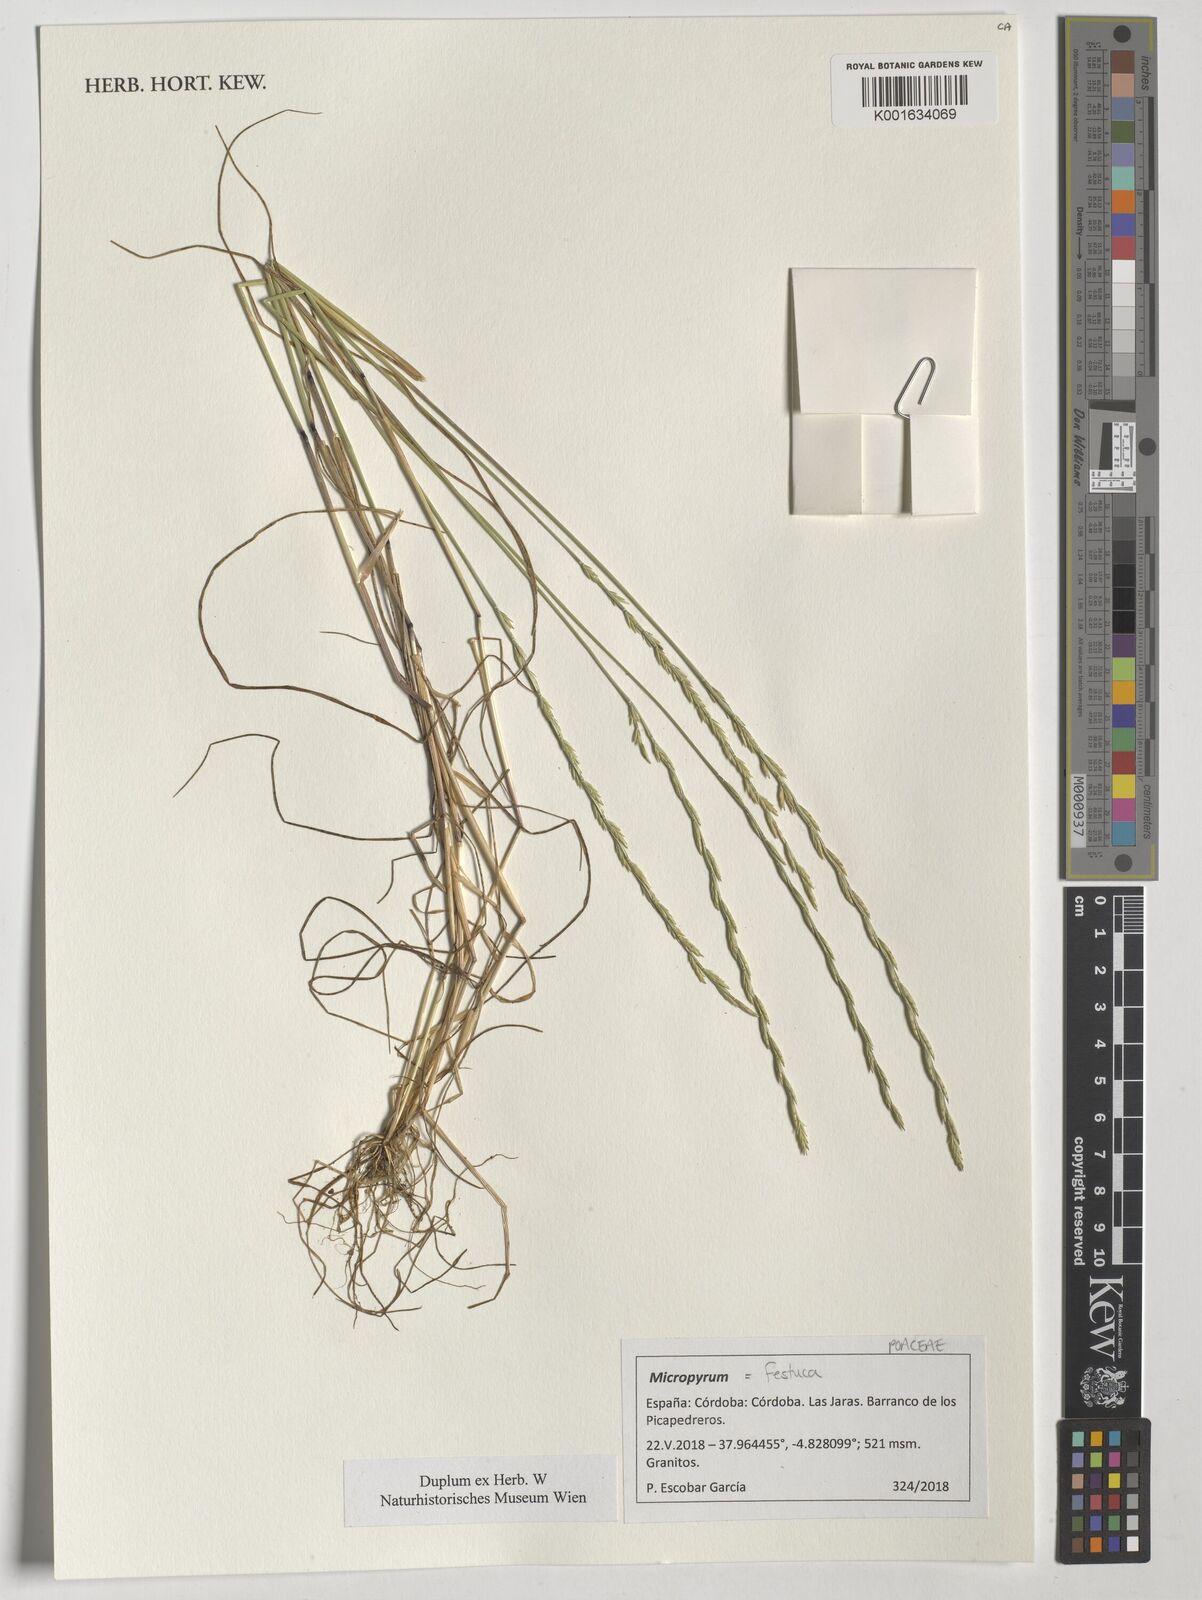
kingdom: Plantae
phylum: Tracheophyta
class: Liliopsida
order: Poales
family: Poaceae
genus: Festuca
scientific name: Festuca
